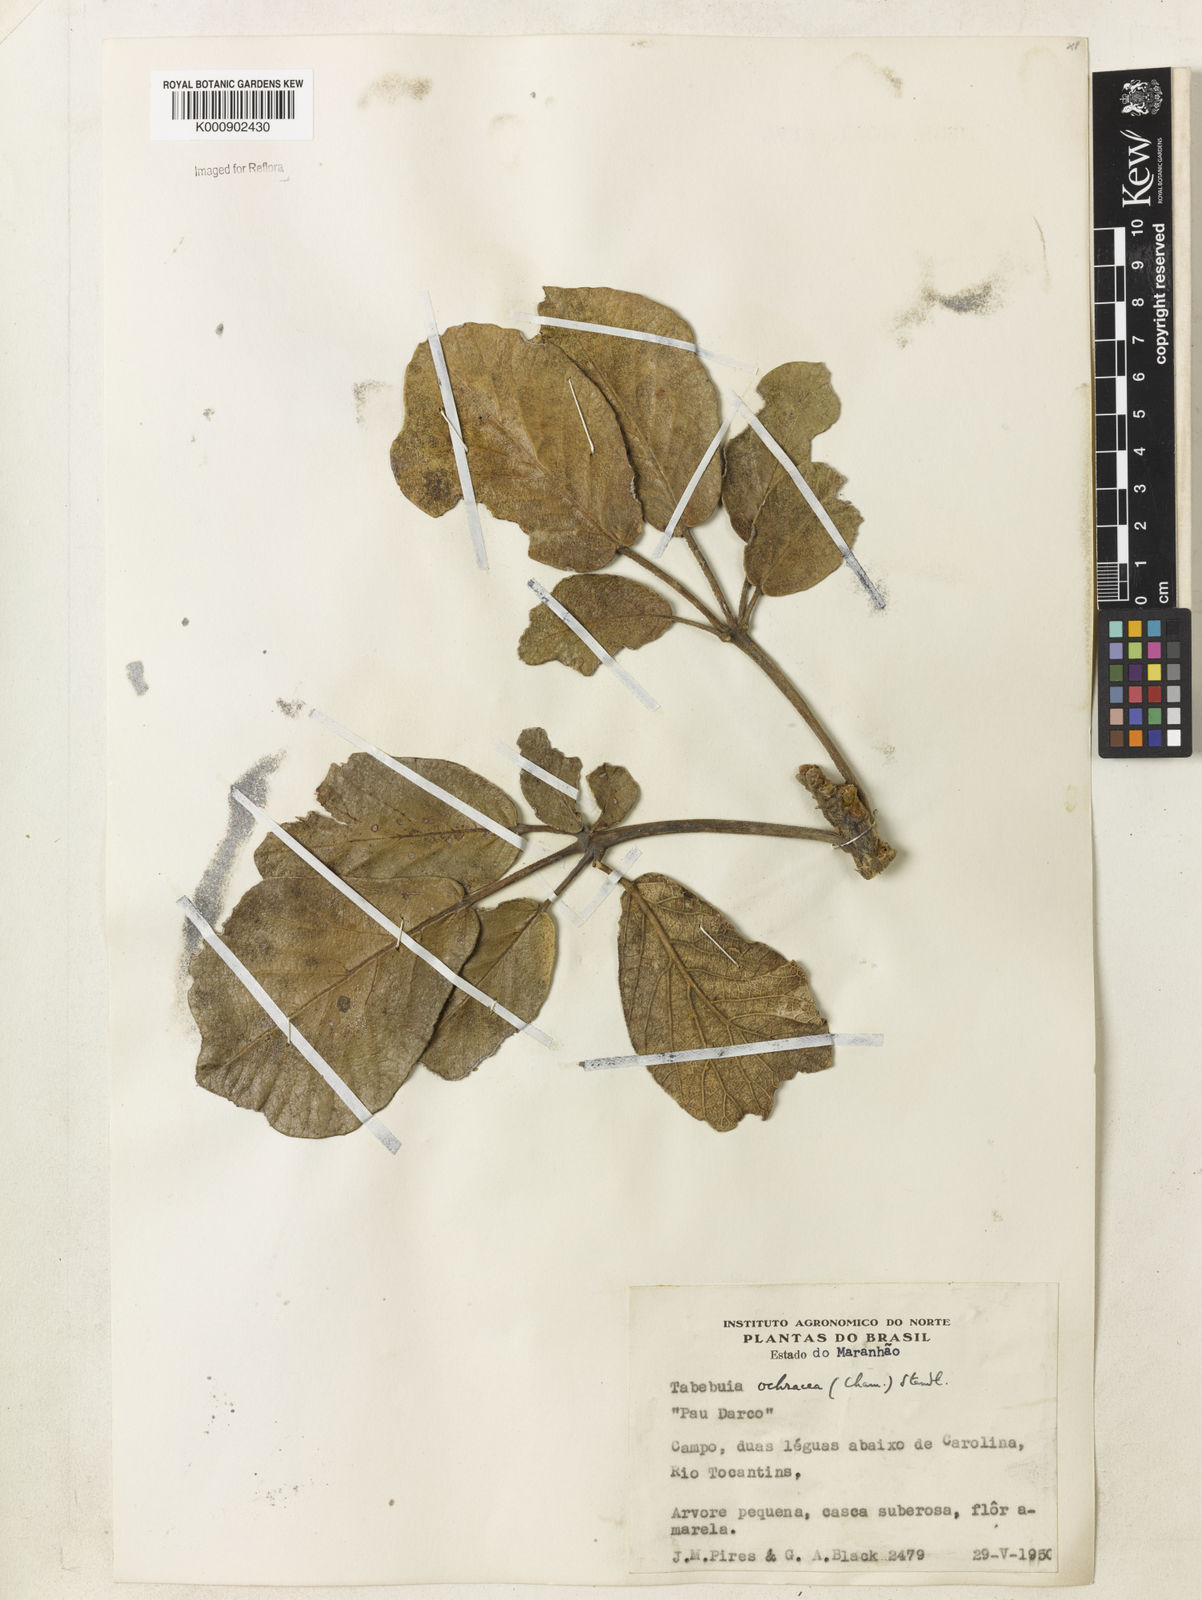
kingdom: Plantae
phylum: Tracheophyta
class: Magnoliopsida
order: Lamiales
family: Bignoniaceae
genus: Handroanthus
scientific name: Handroanthus ochraceus
